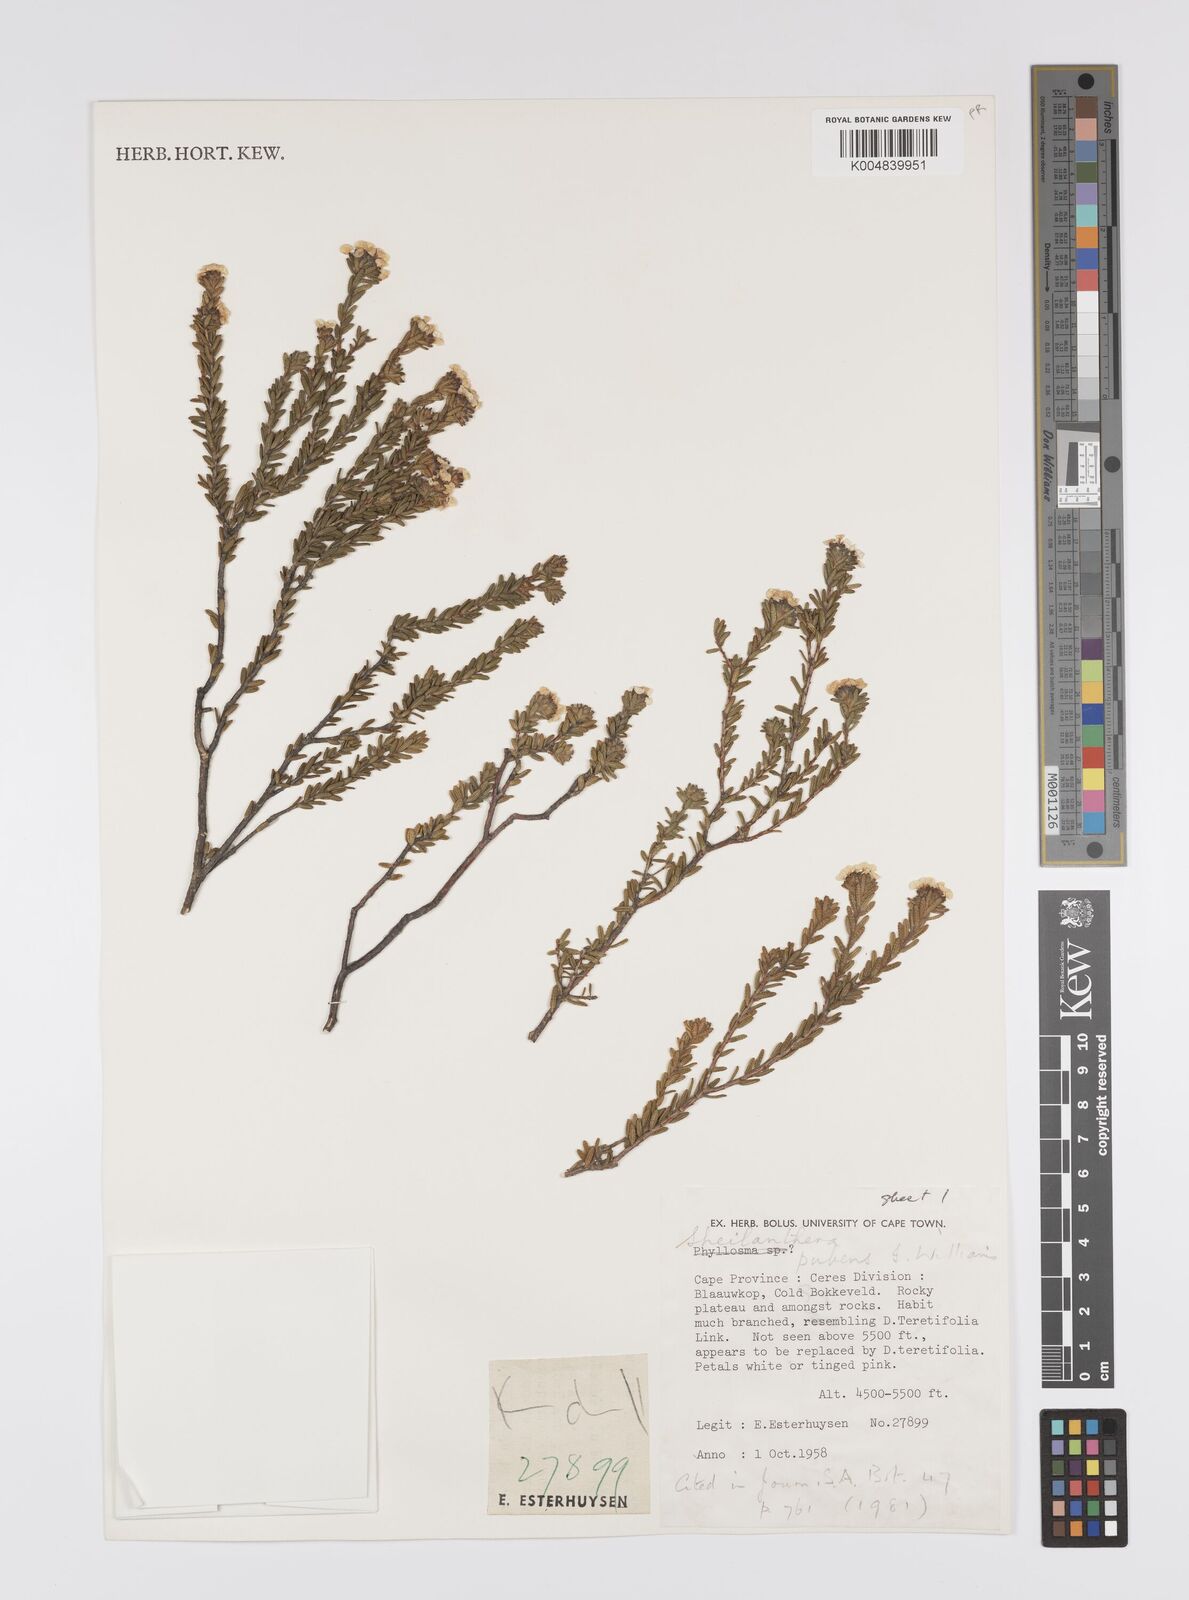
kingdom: Plantae
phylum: Tracheophyta
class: Magnoliopsida
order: Sapindales
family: Rutaceae
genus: Sheilanthera
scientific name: Sheilanthera pubens
